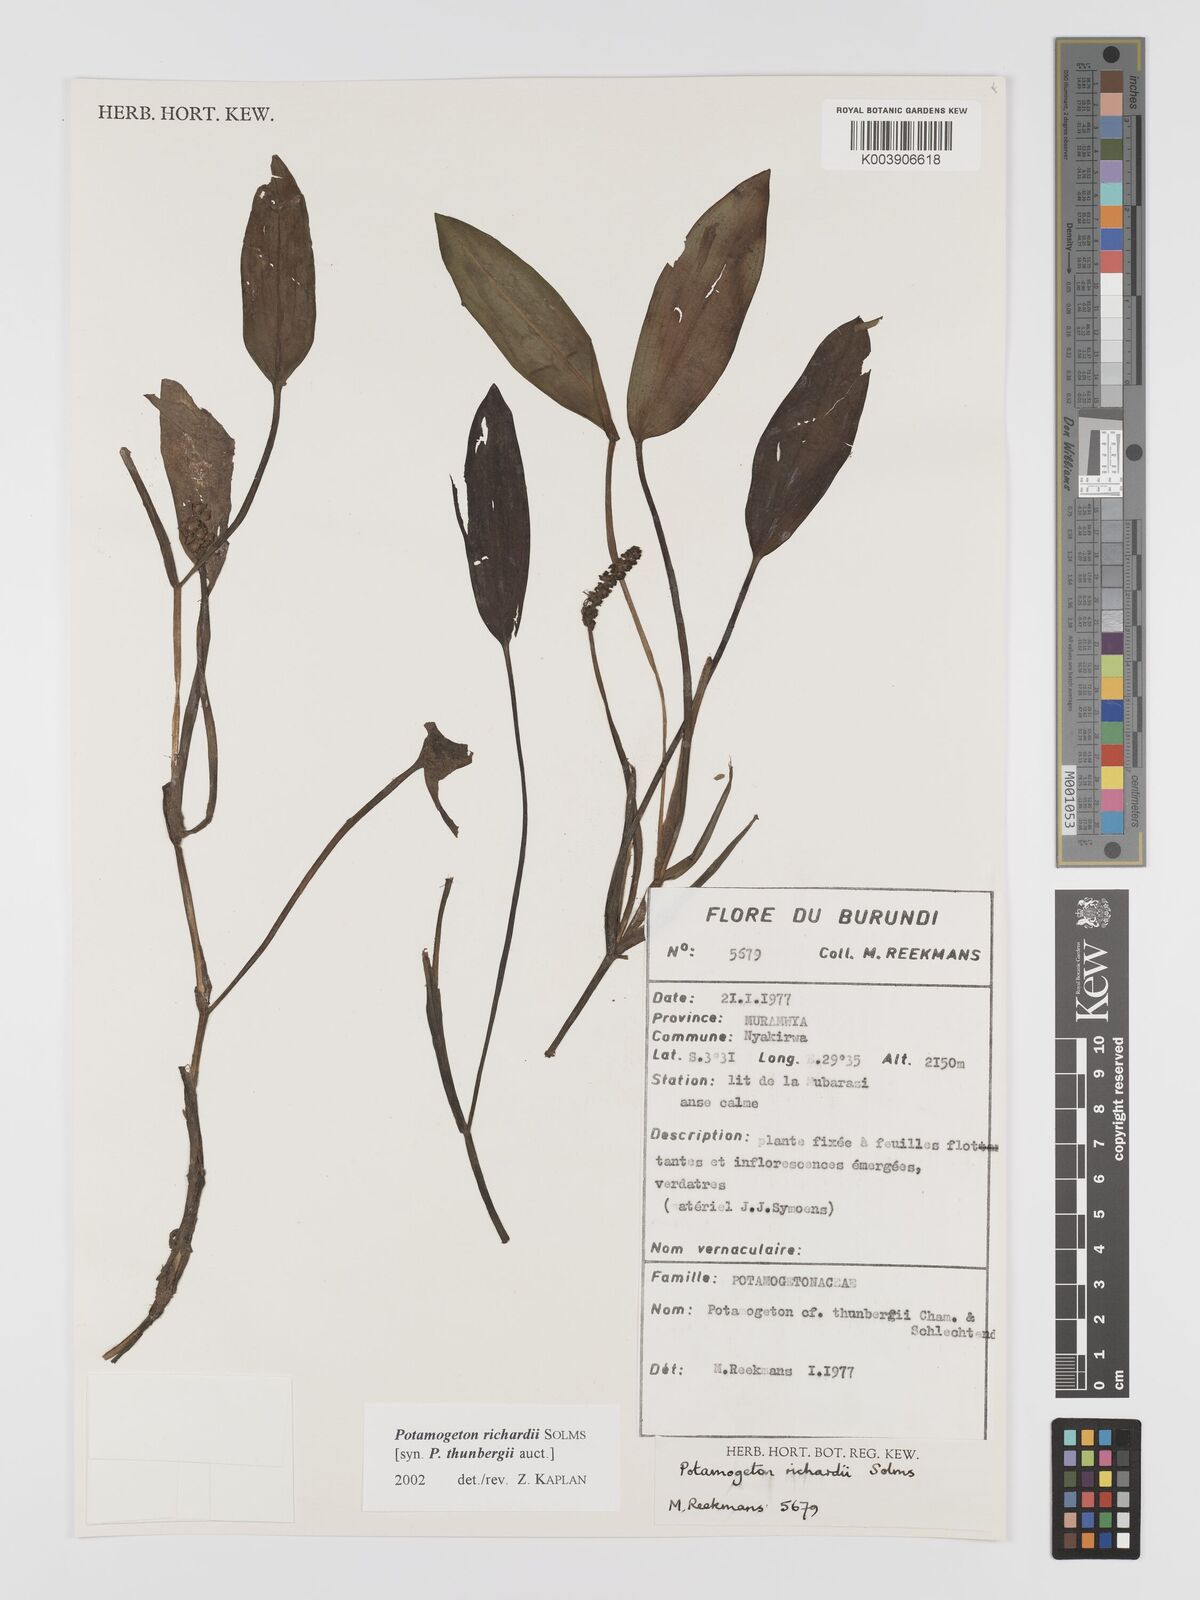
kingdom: Plantae
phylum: Tracheophyta
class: Liliopsida
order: Alismatales
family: Potamogetonaceae
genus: Potamogeton
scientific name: Potamogeton nodosus
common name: Loddon pondweed
